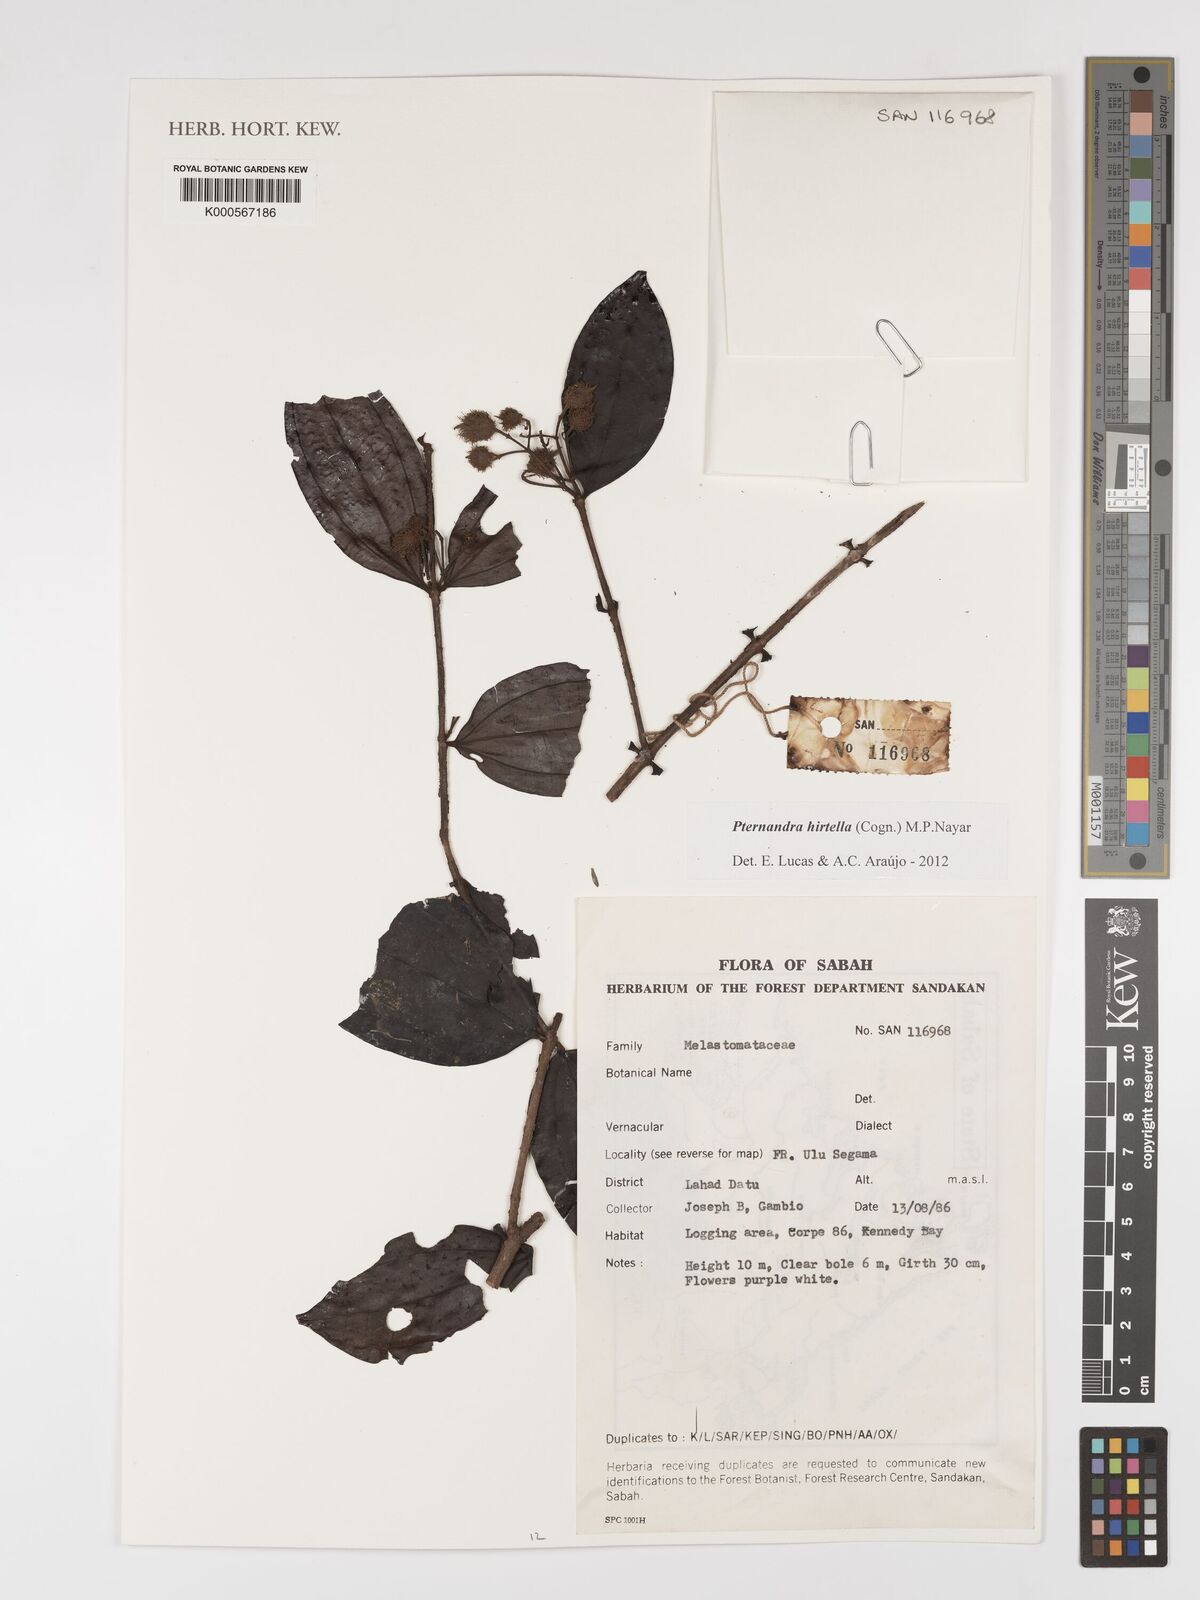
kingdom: Plantae
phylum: Tracheophyta
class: Magnoliopsida
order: Myrtales
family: Melastomataceae
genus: Pternandra
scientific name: Pternandra hirtella
